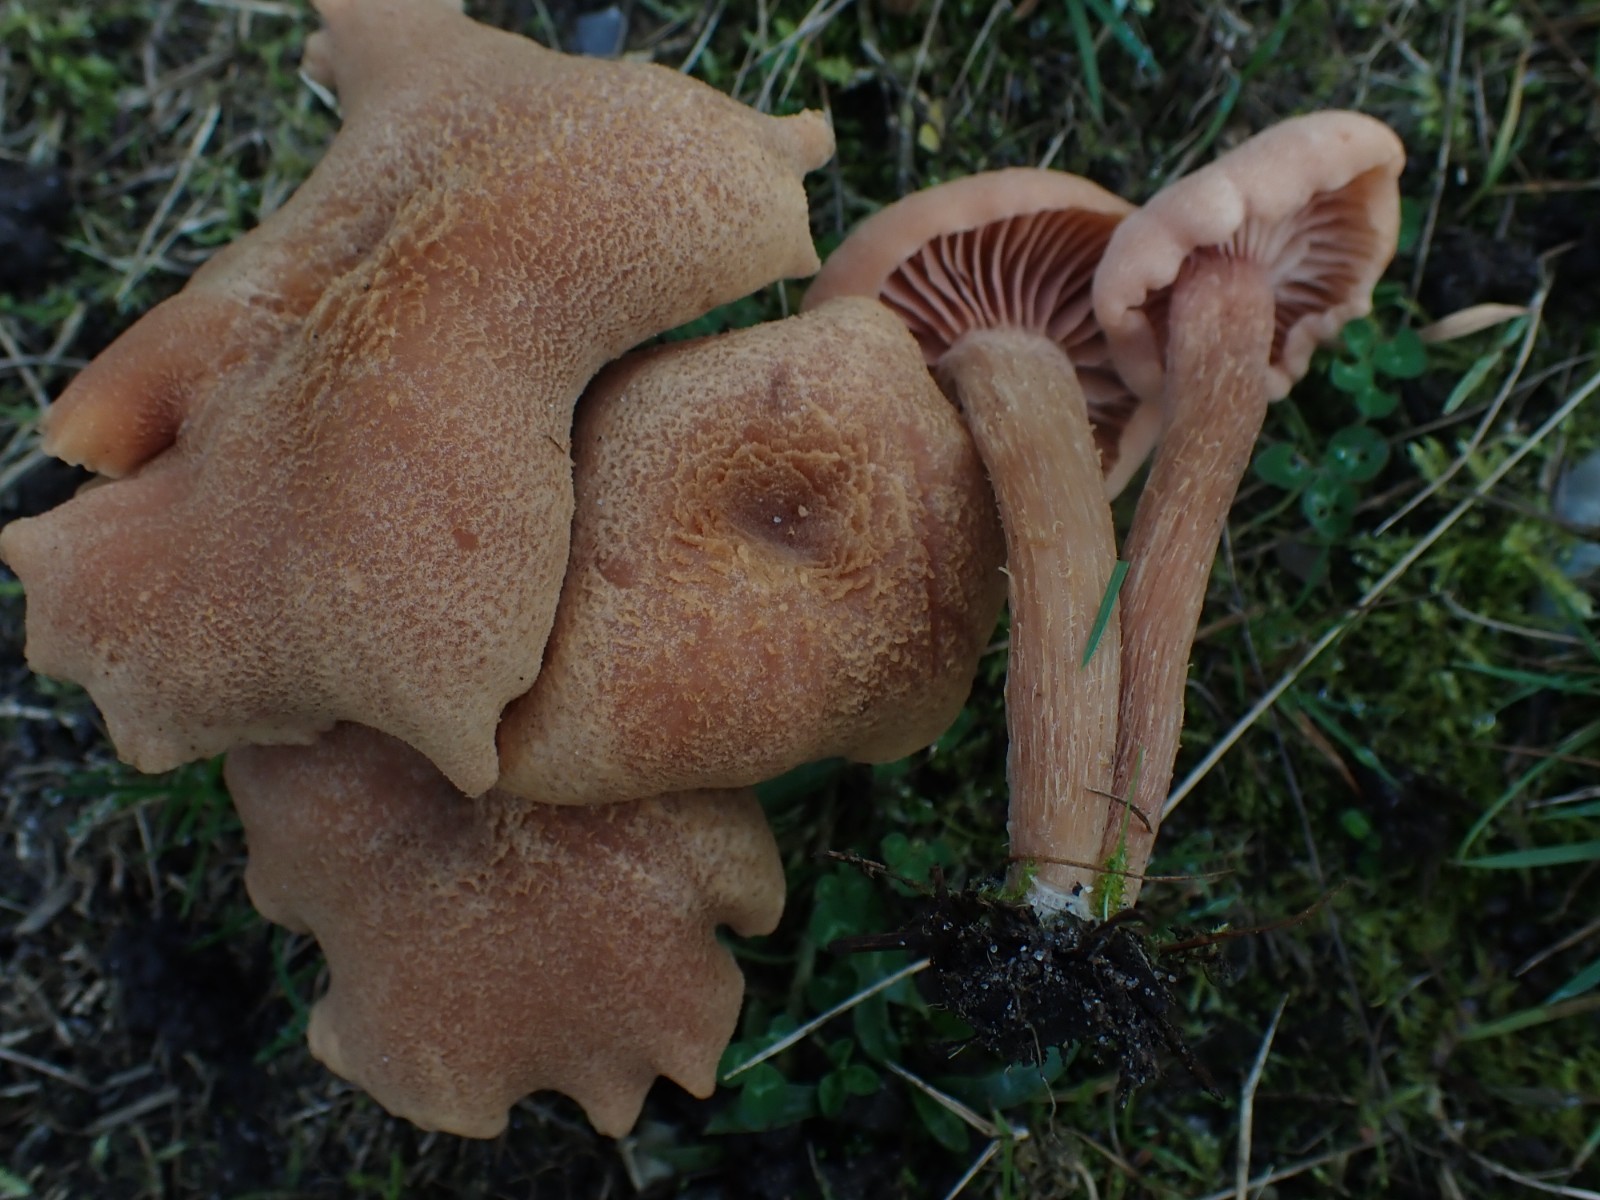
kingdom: Fungi
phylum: Basidiomycota
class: Agaricomycetes
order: Agaricales
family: Hydnangiaceae
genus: Laccaria
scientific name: Laccaria proxima
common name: stor ametysthat
